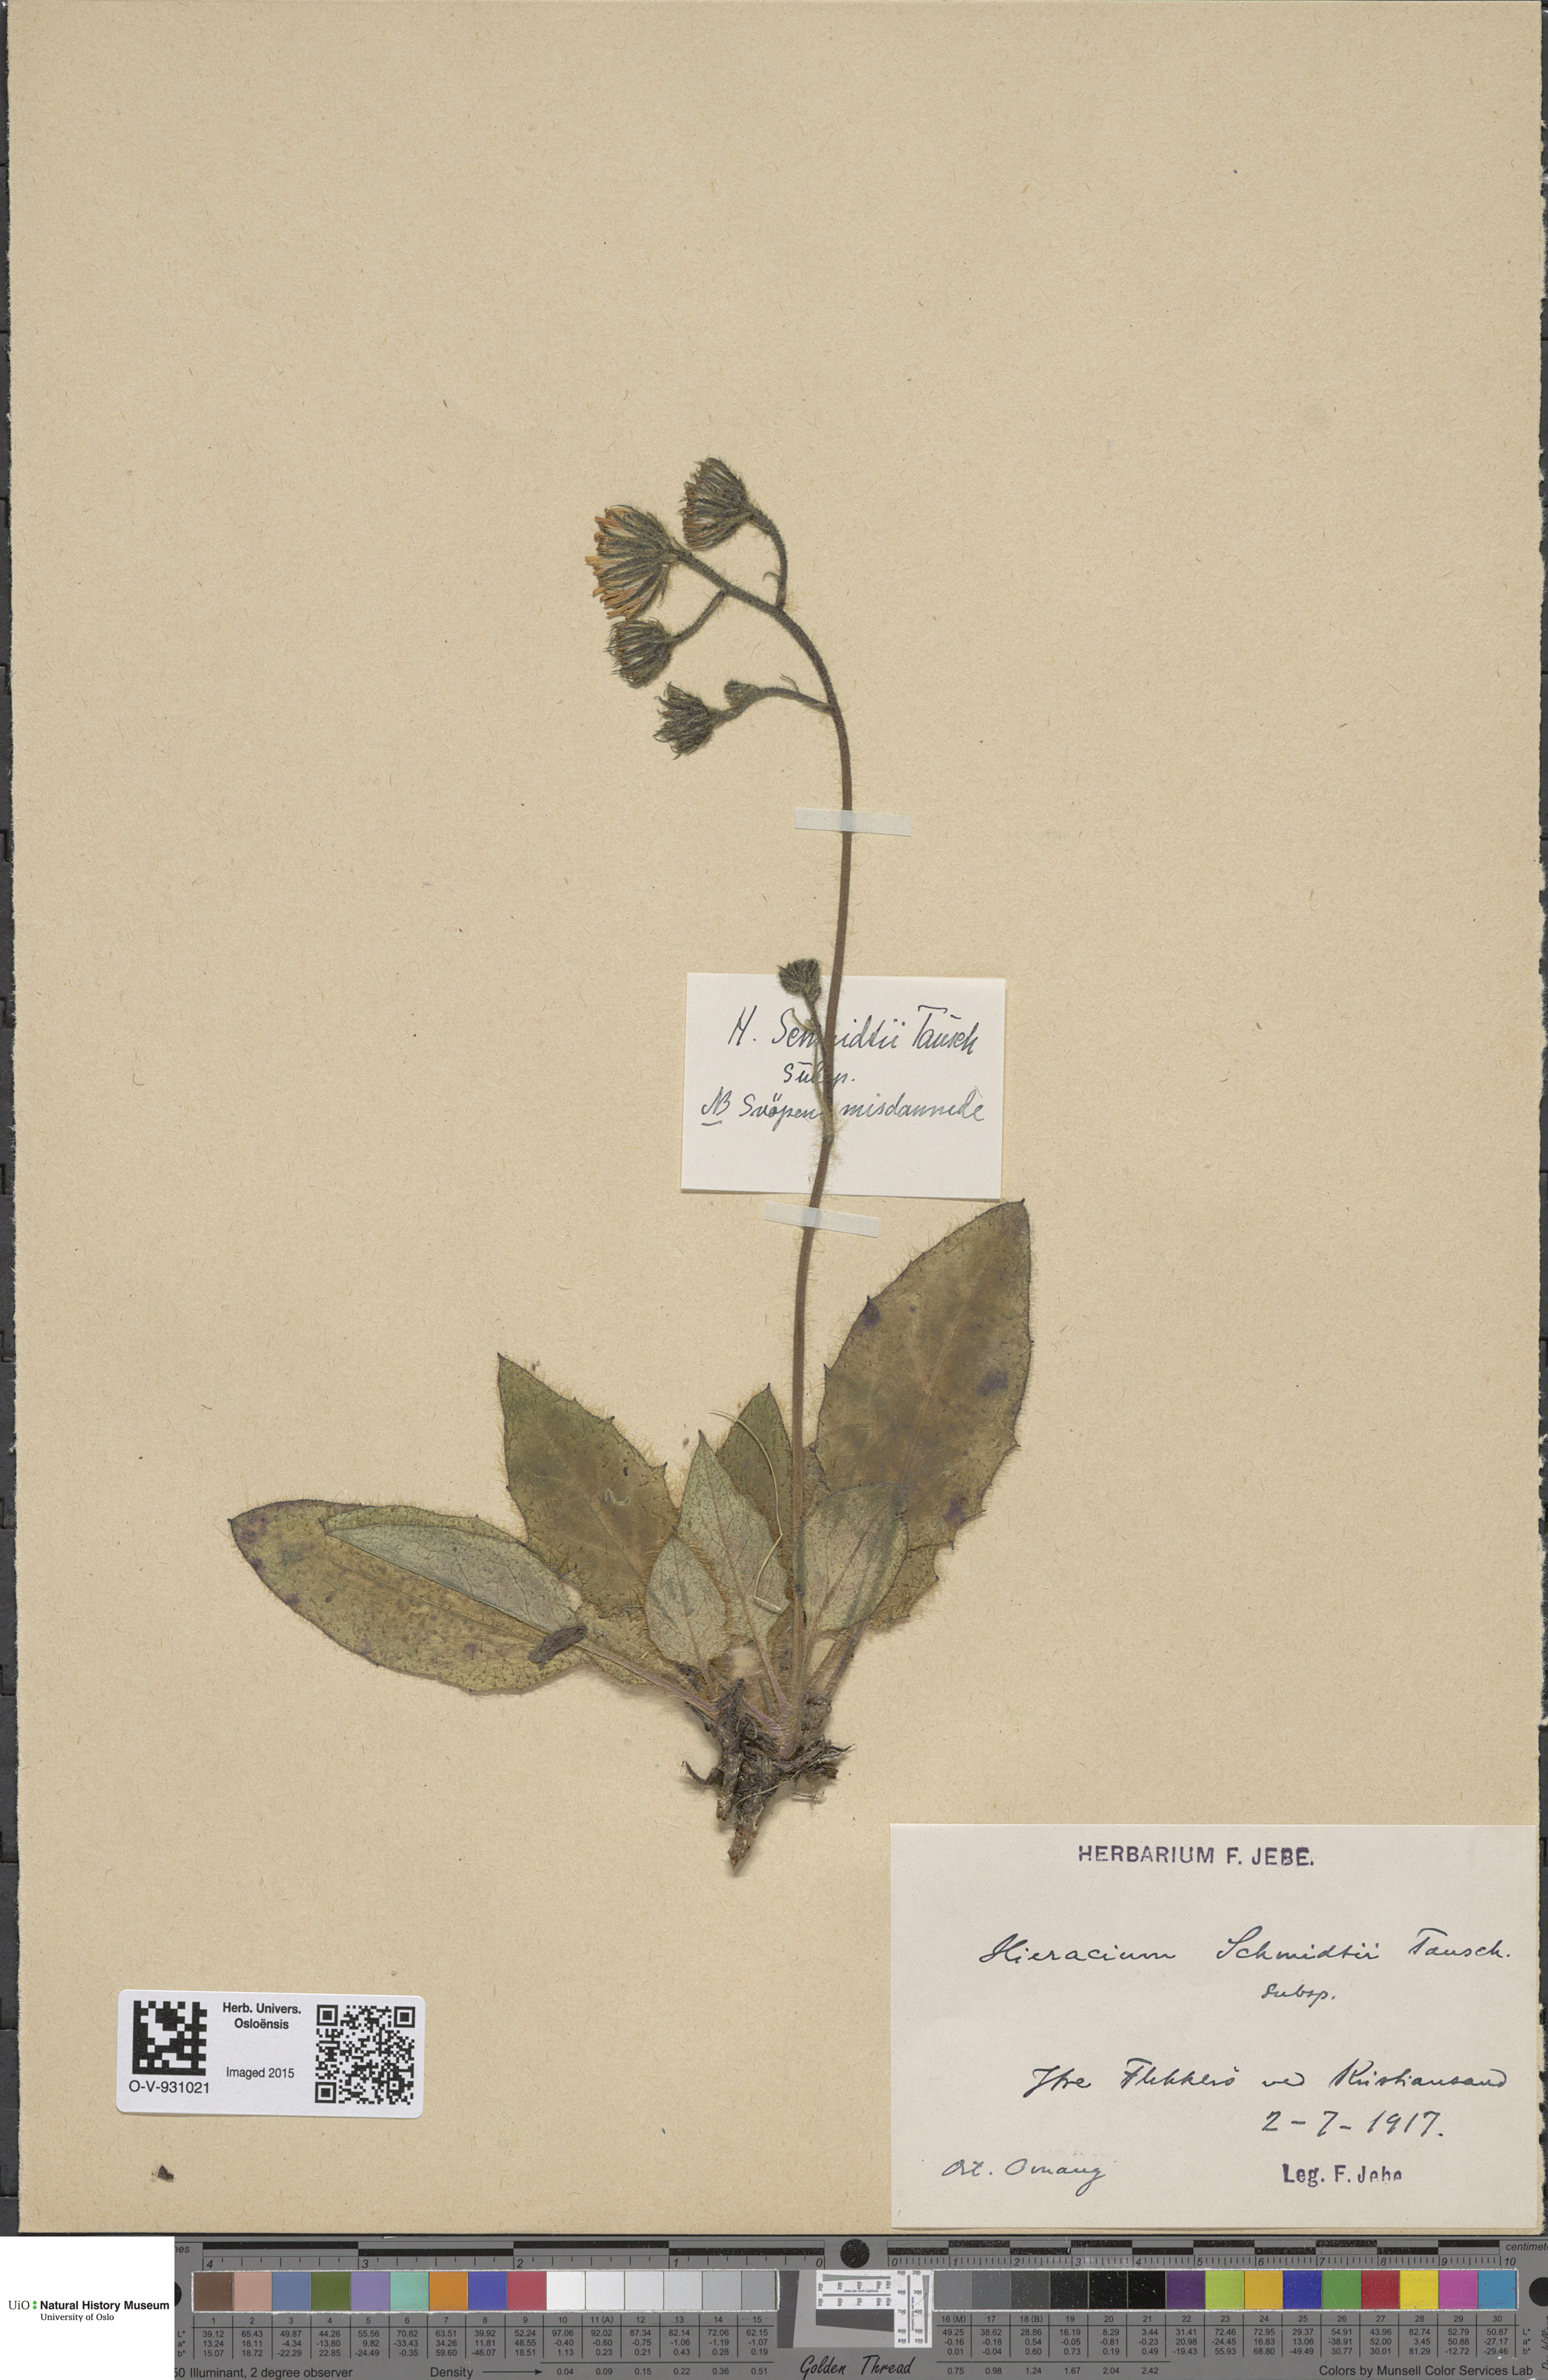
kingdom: Plantae
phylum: Tracheophyta
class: Magnoliopsida
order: Asterales
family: Asteraceae
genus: Hieracium
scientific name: Hieracium schmidtii
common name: Schmidt's hawkweed
